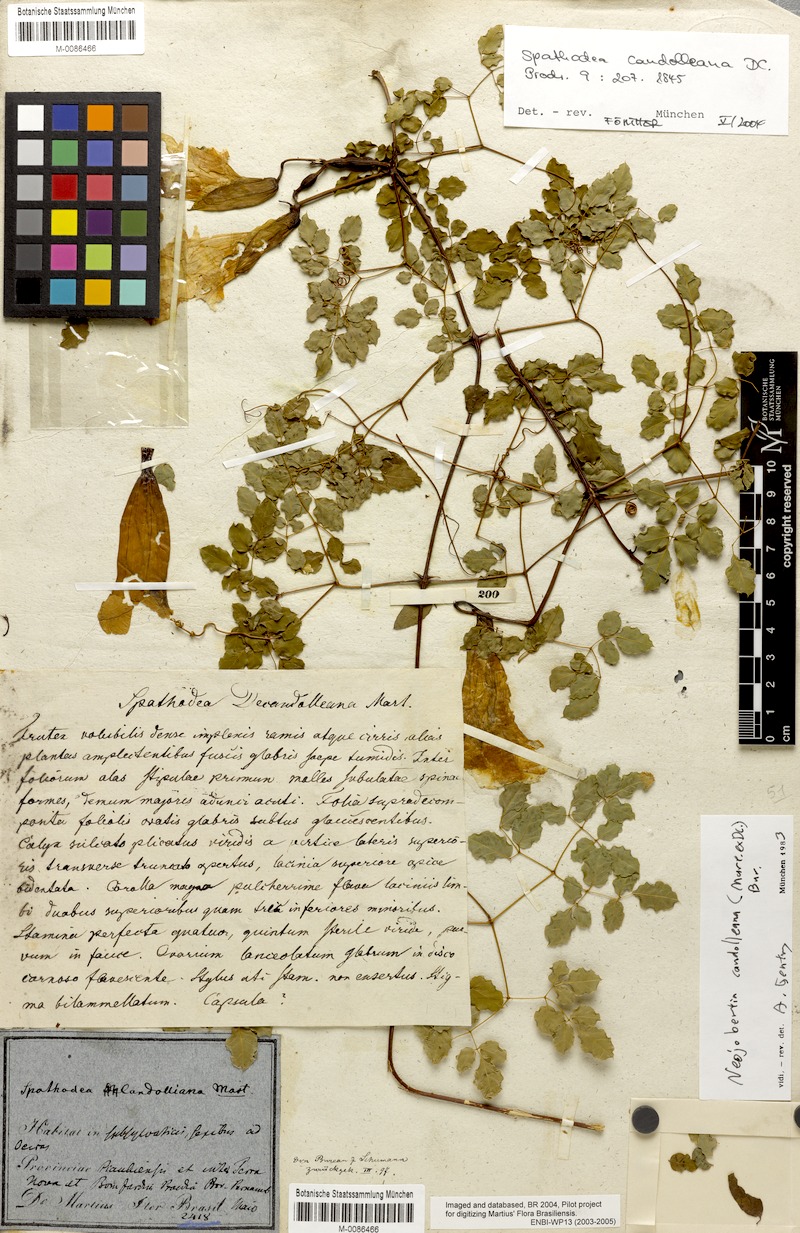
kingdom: Plantae
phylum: Tracheophyta
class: Magnoliopsida
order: Lamiales
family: Bignoniaceae
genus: Adenocalymma
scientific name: Adenocalymma candolleanum
